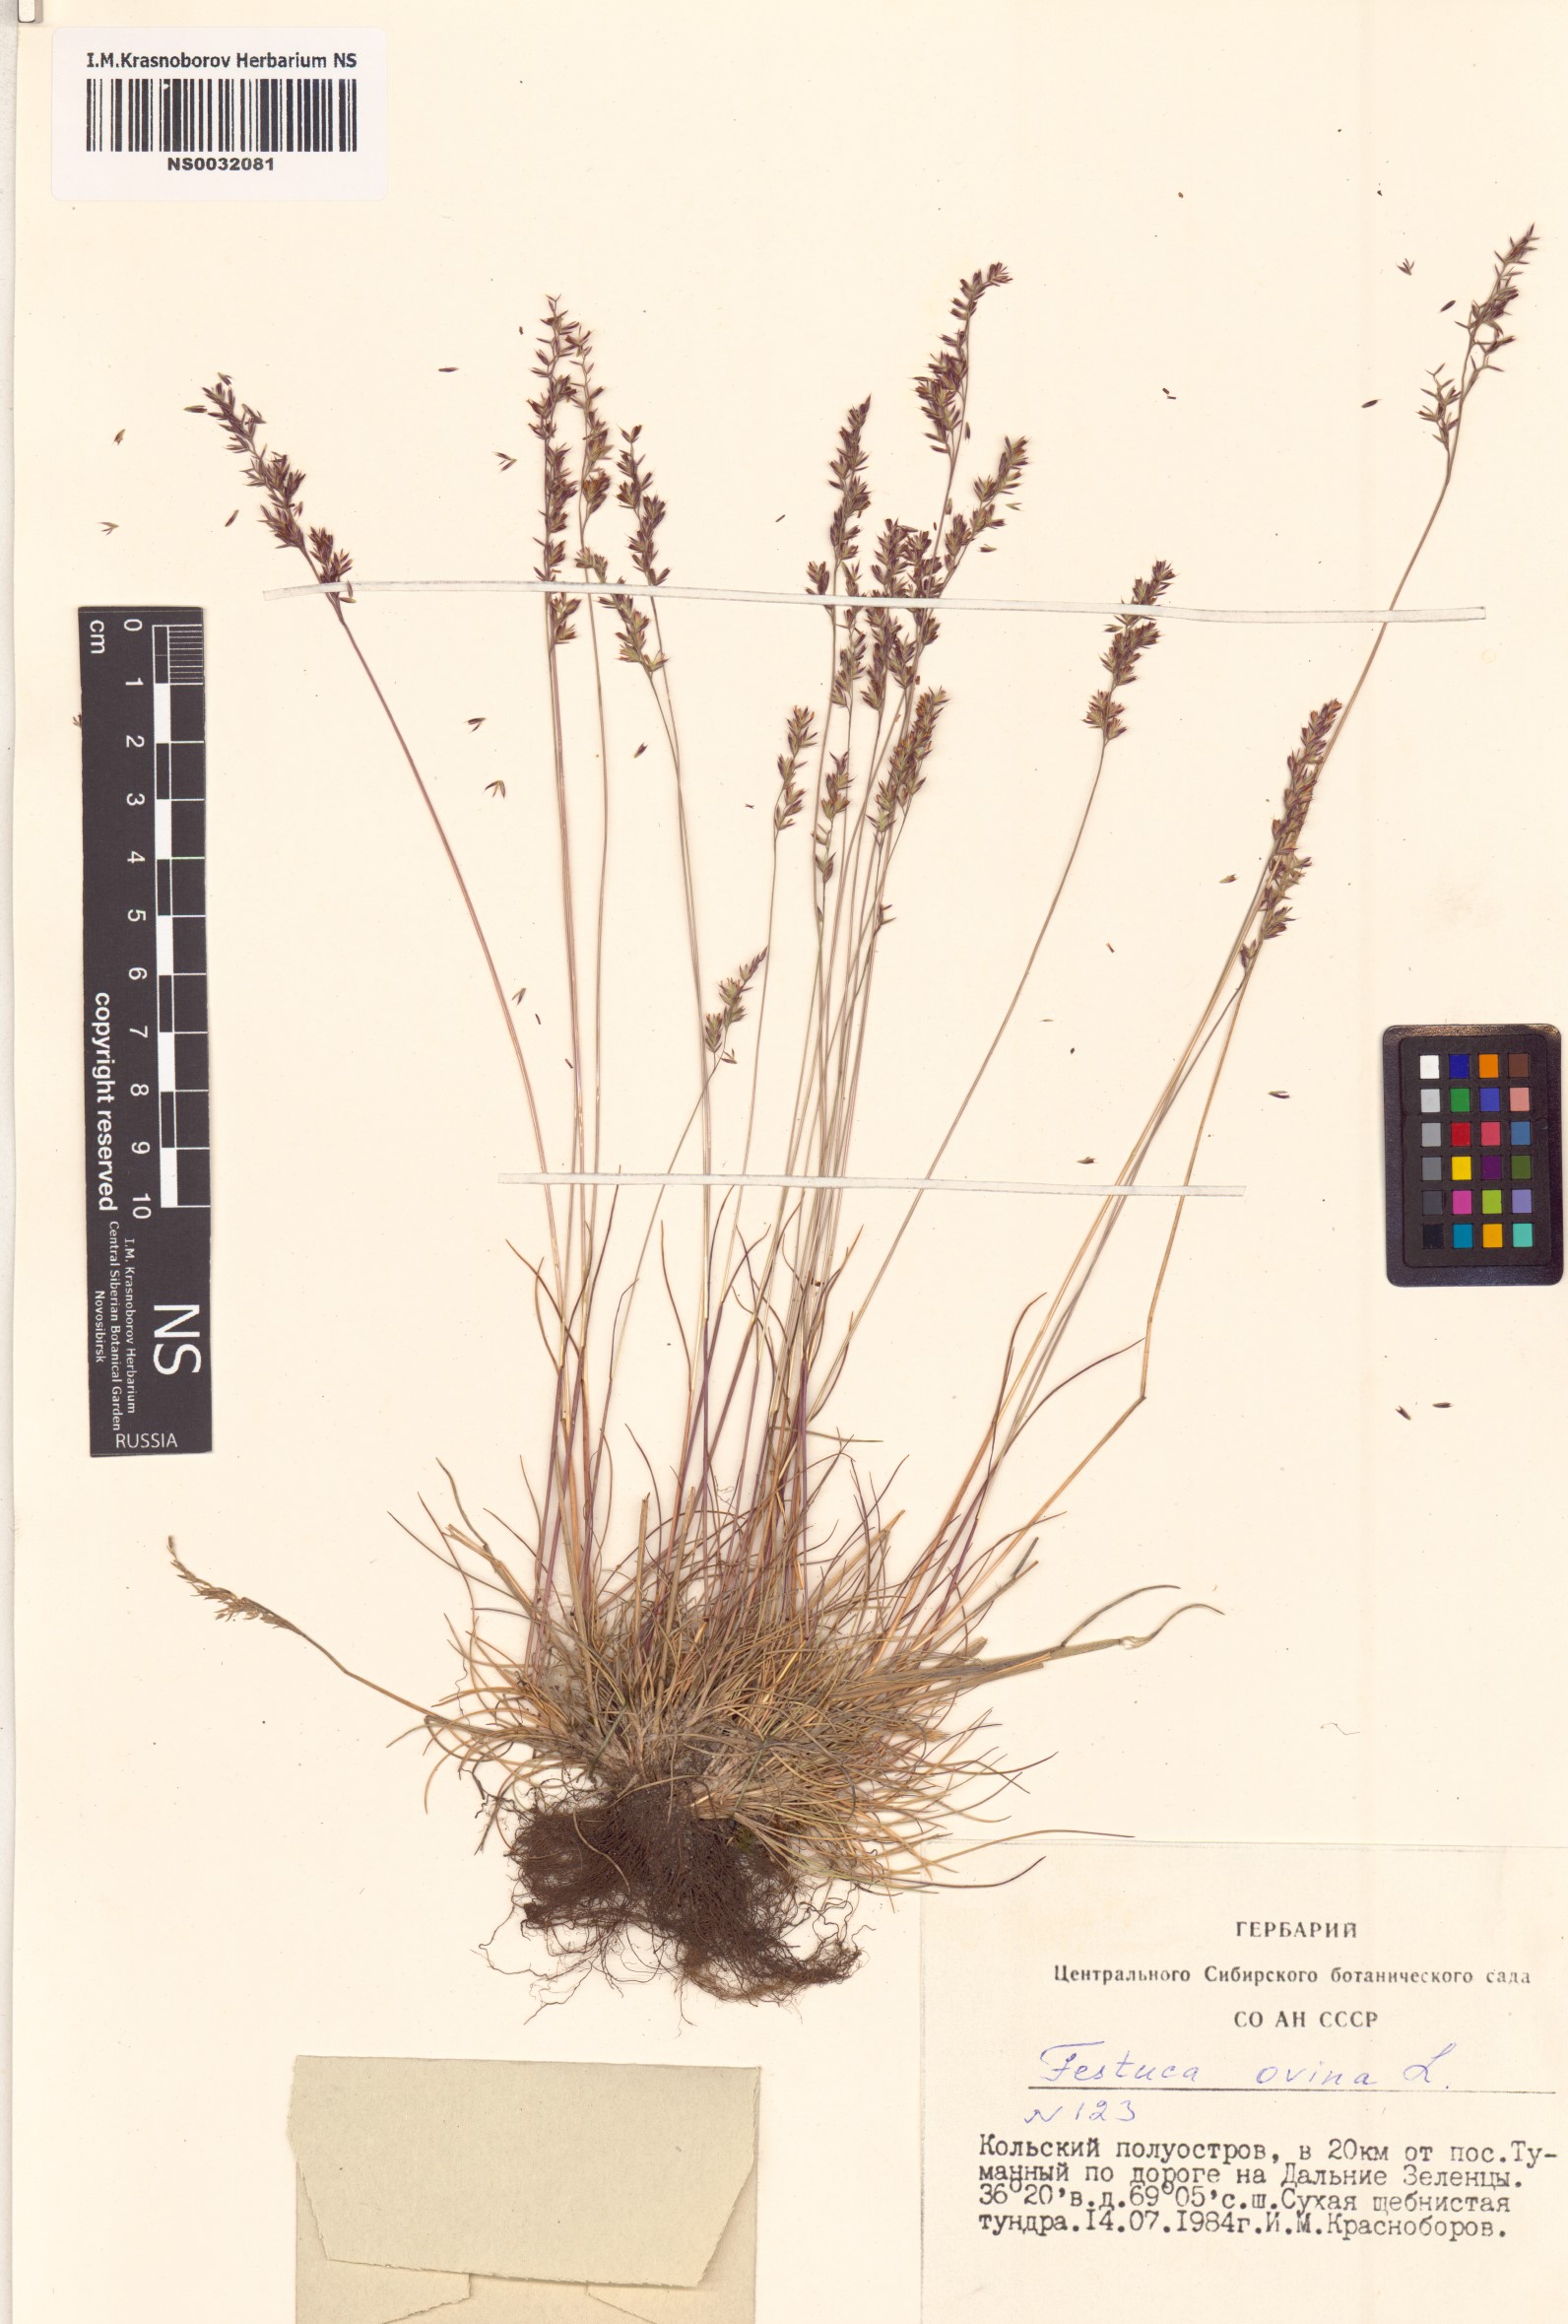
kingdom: Plantae
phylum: Tracheophyta
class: Liliopsida
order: Poales
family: Poaceae
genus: Festuca
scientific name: Festuca ovina
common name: Sheep fescue
